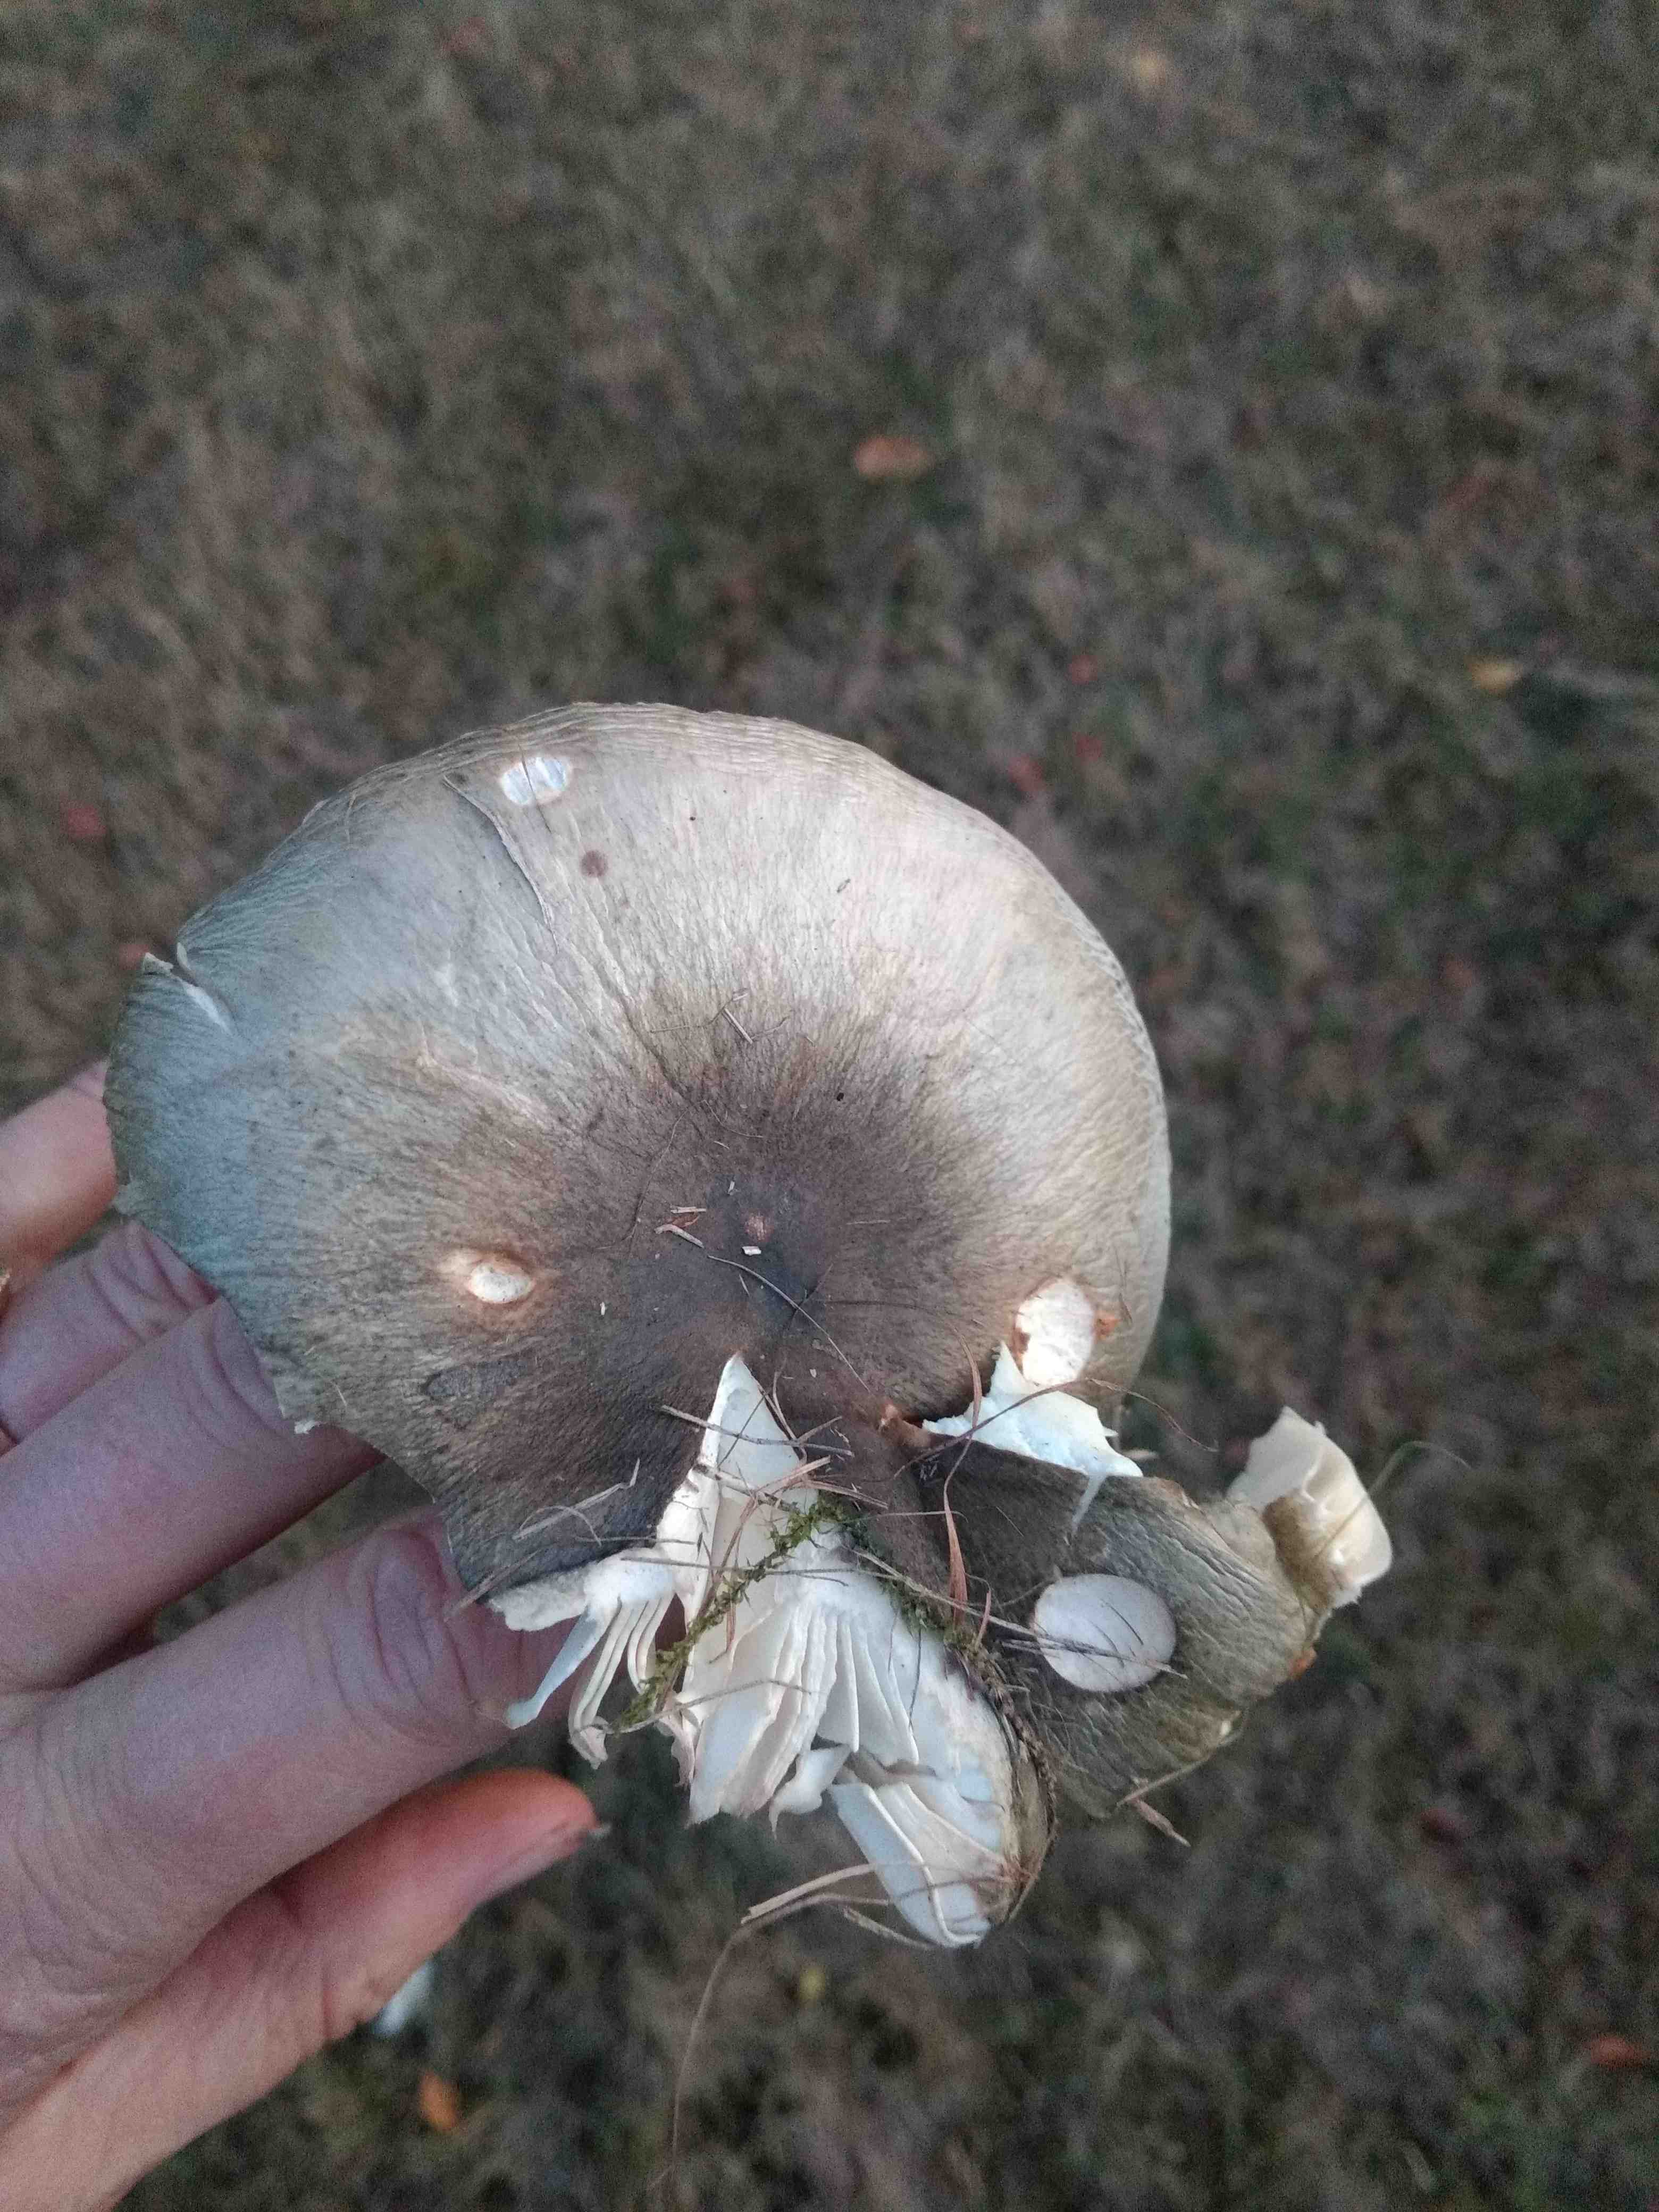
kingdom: Fungi
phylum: Basidiomycota
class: Agaricomycetes
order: Russulales
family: Russulaceae
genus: Russula
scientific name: Russula
